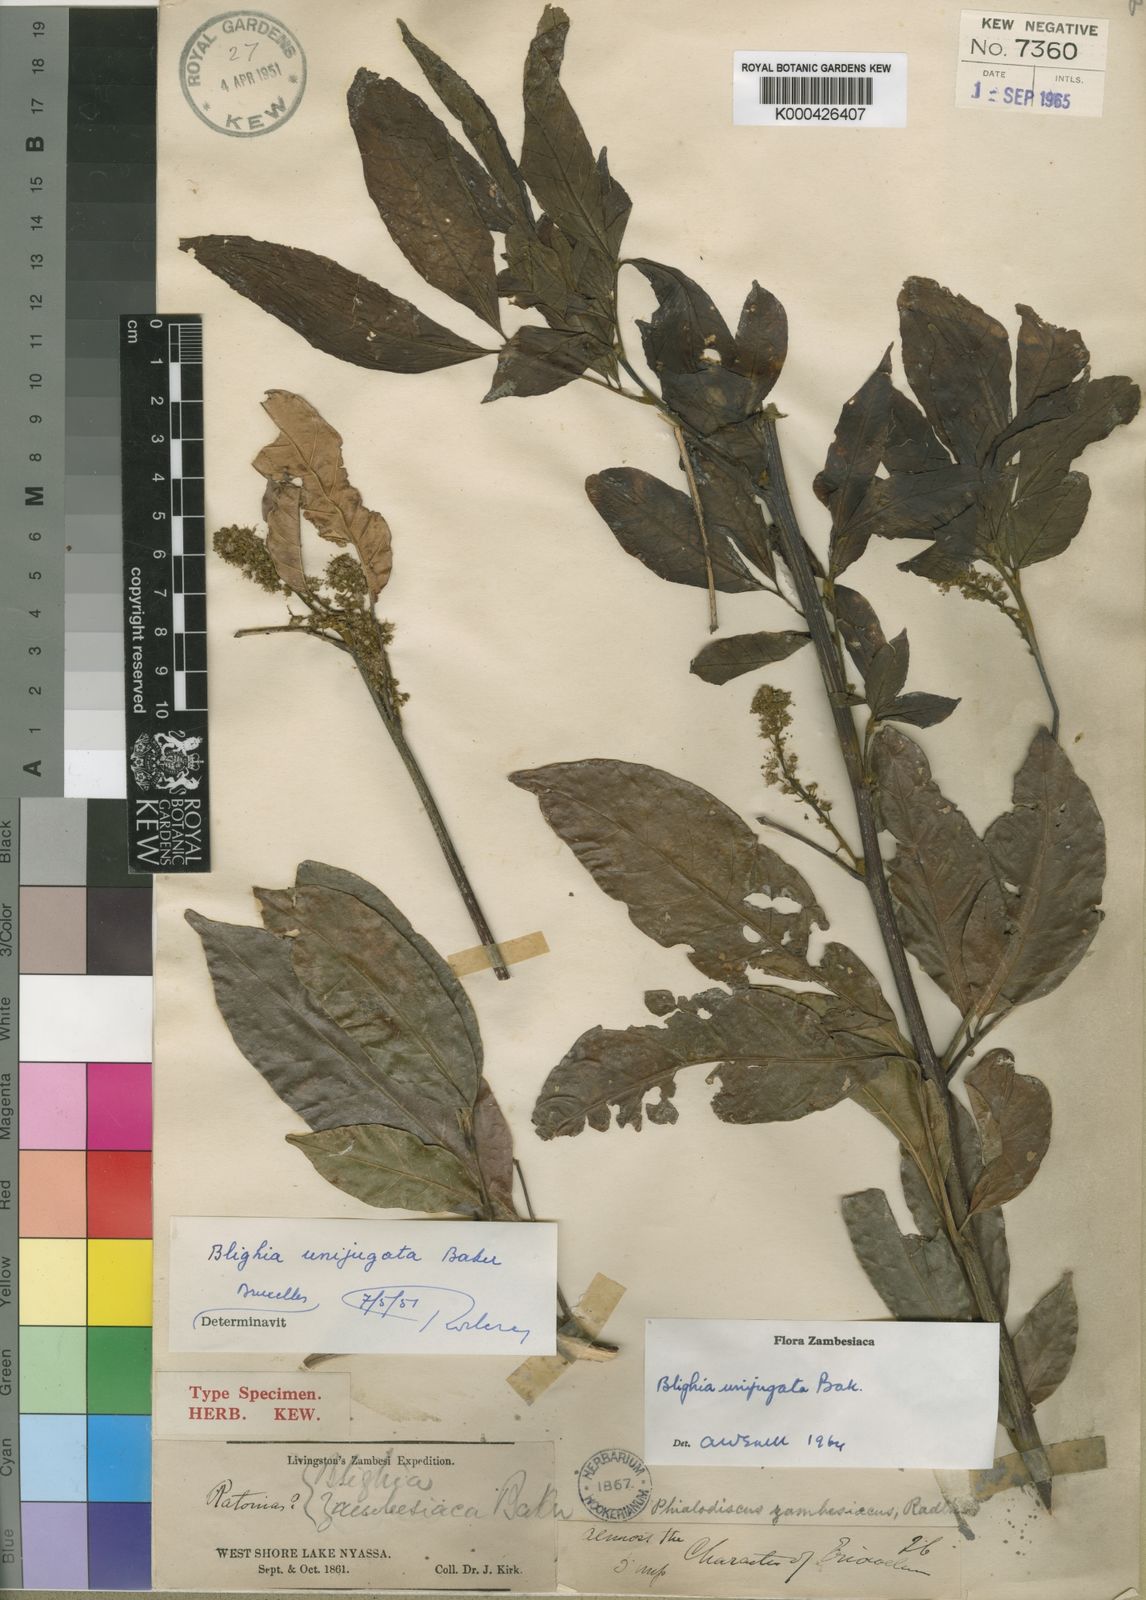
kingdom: Plantae
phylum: Tracheophyta
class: Magnoliopsida
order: Sapindales
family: Sapindaceae
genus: Blighia
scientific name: Blighia unijugata
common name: Triangle tops
